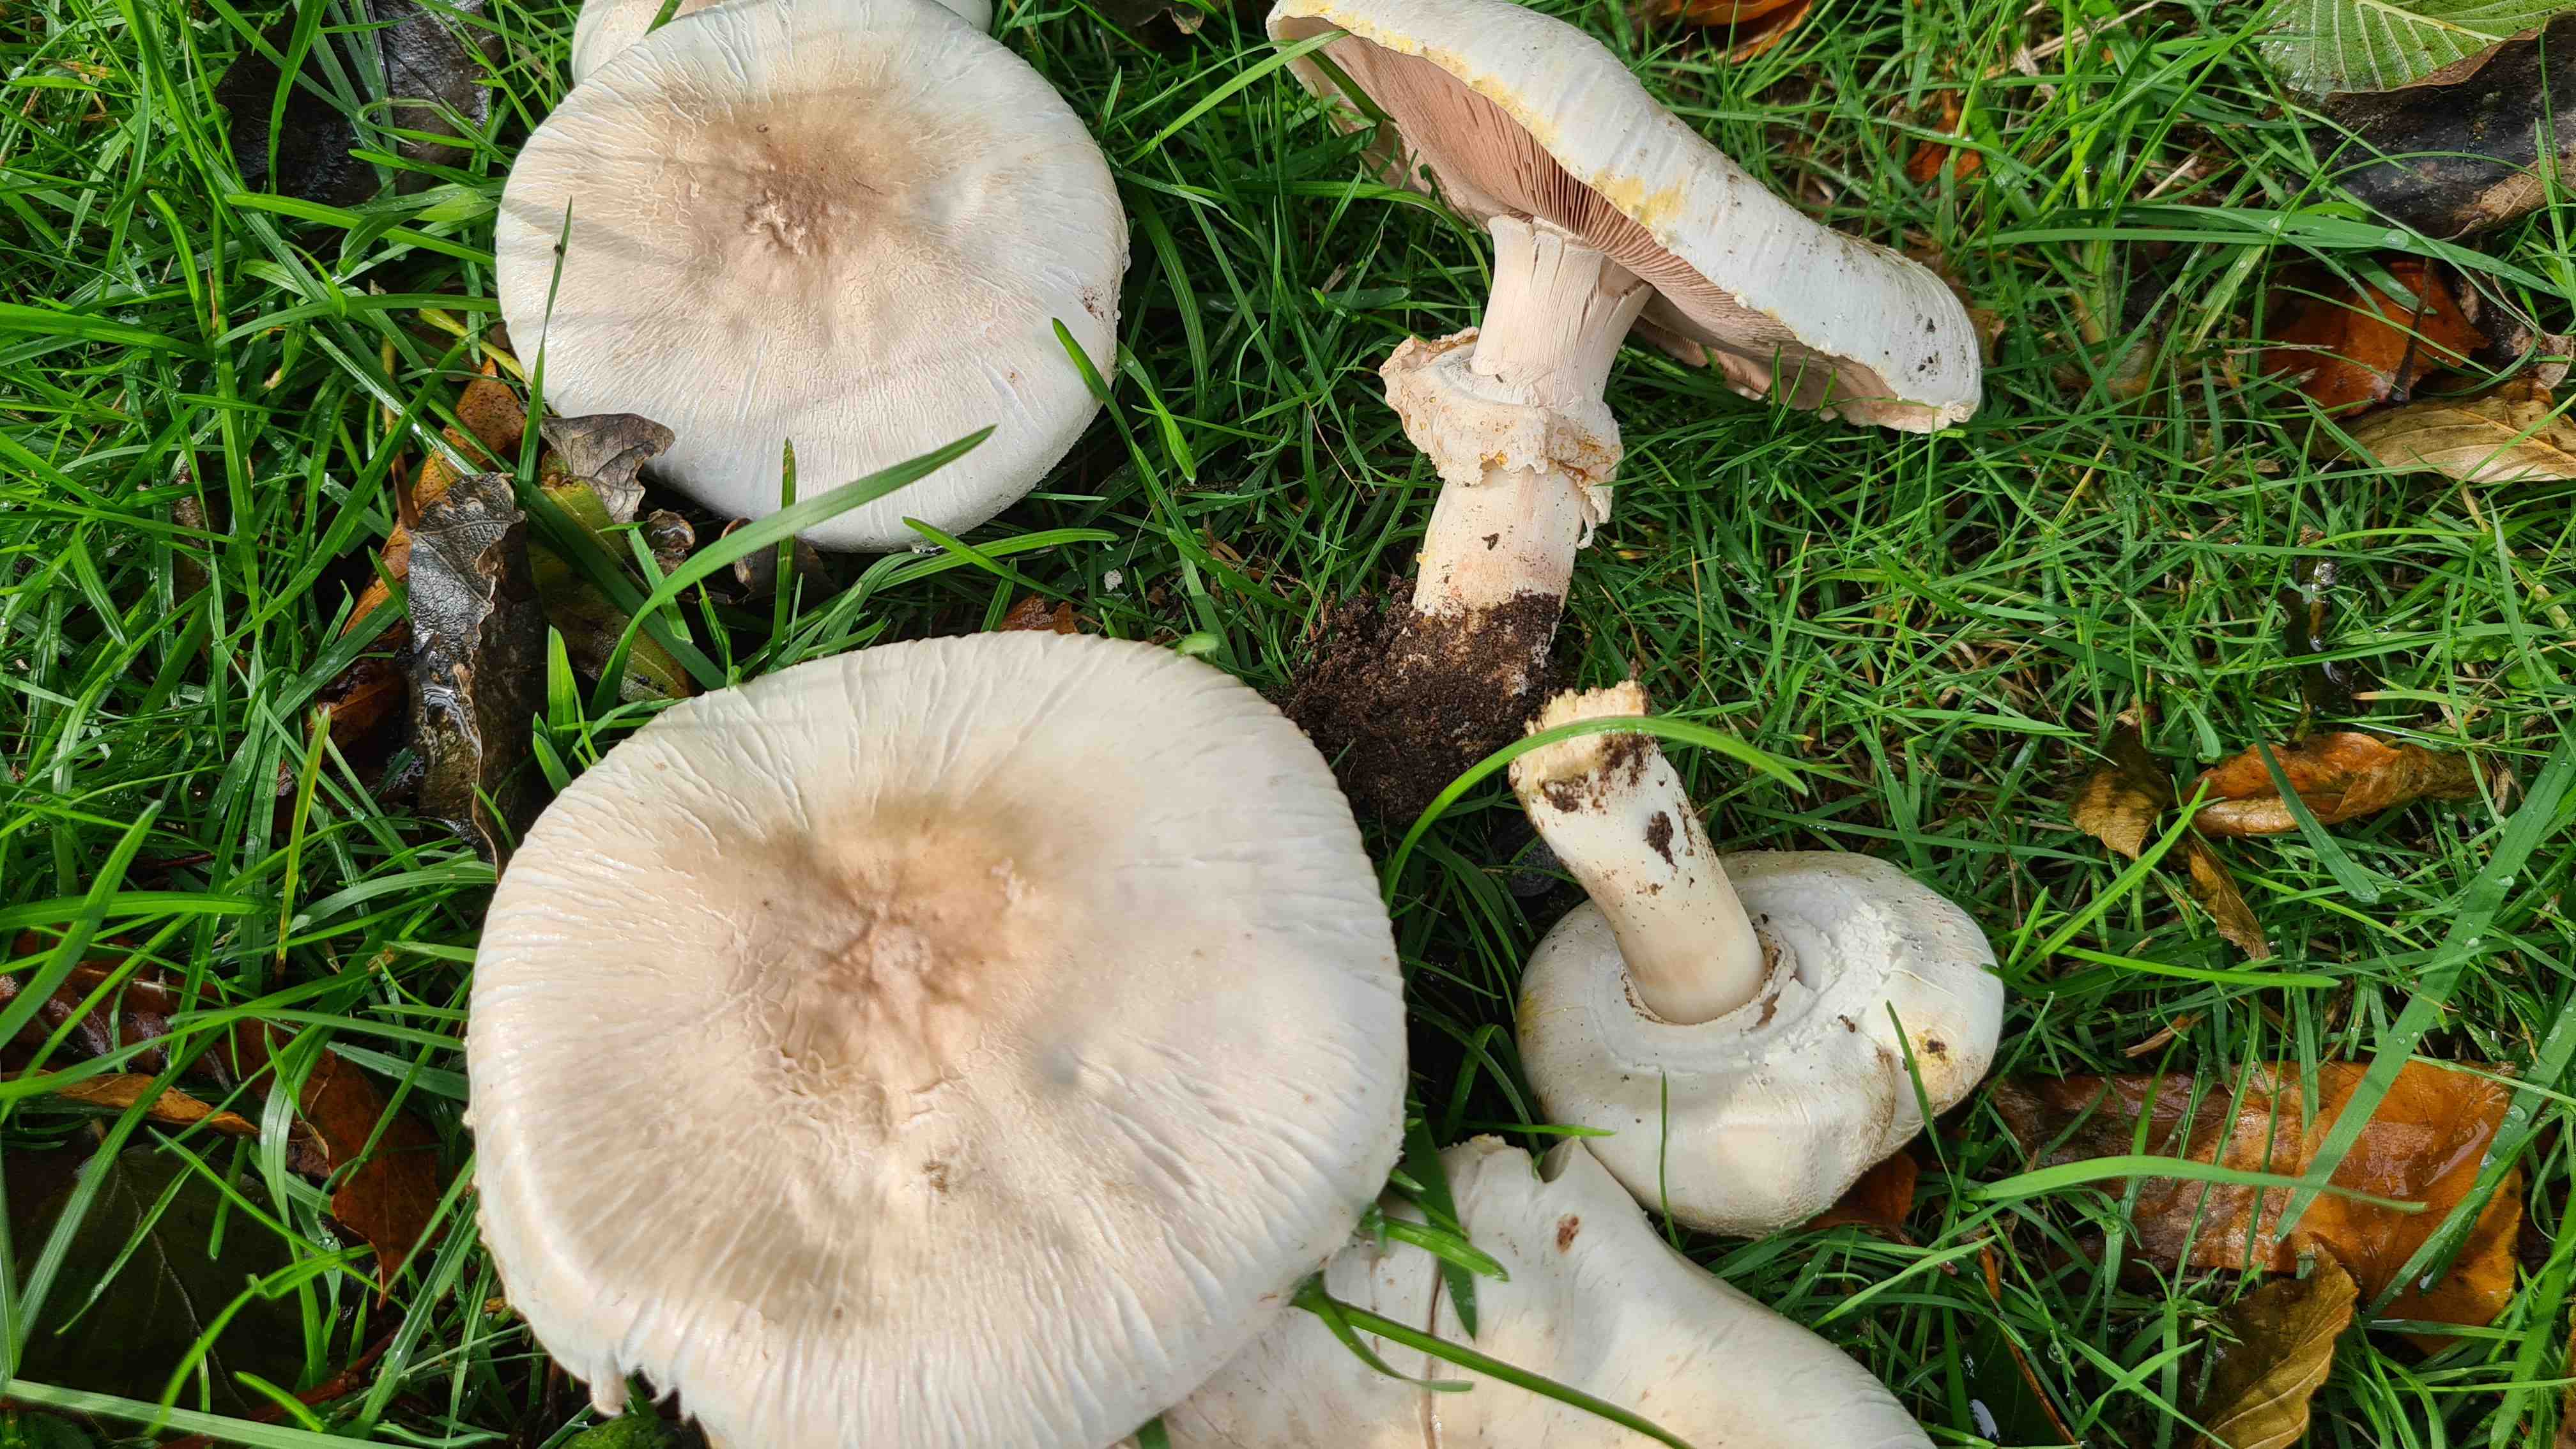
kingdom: Fungi
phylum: Basidiomycota
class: Agaricomycetes
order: Agaricales
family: Agaricaceae
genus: Agaricus
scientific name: Agaricus xanthodermus
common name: karbol-champignon
